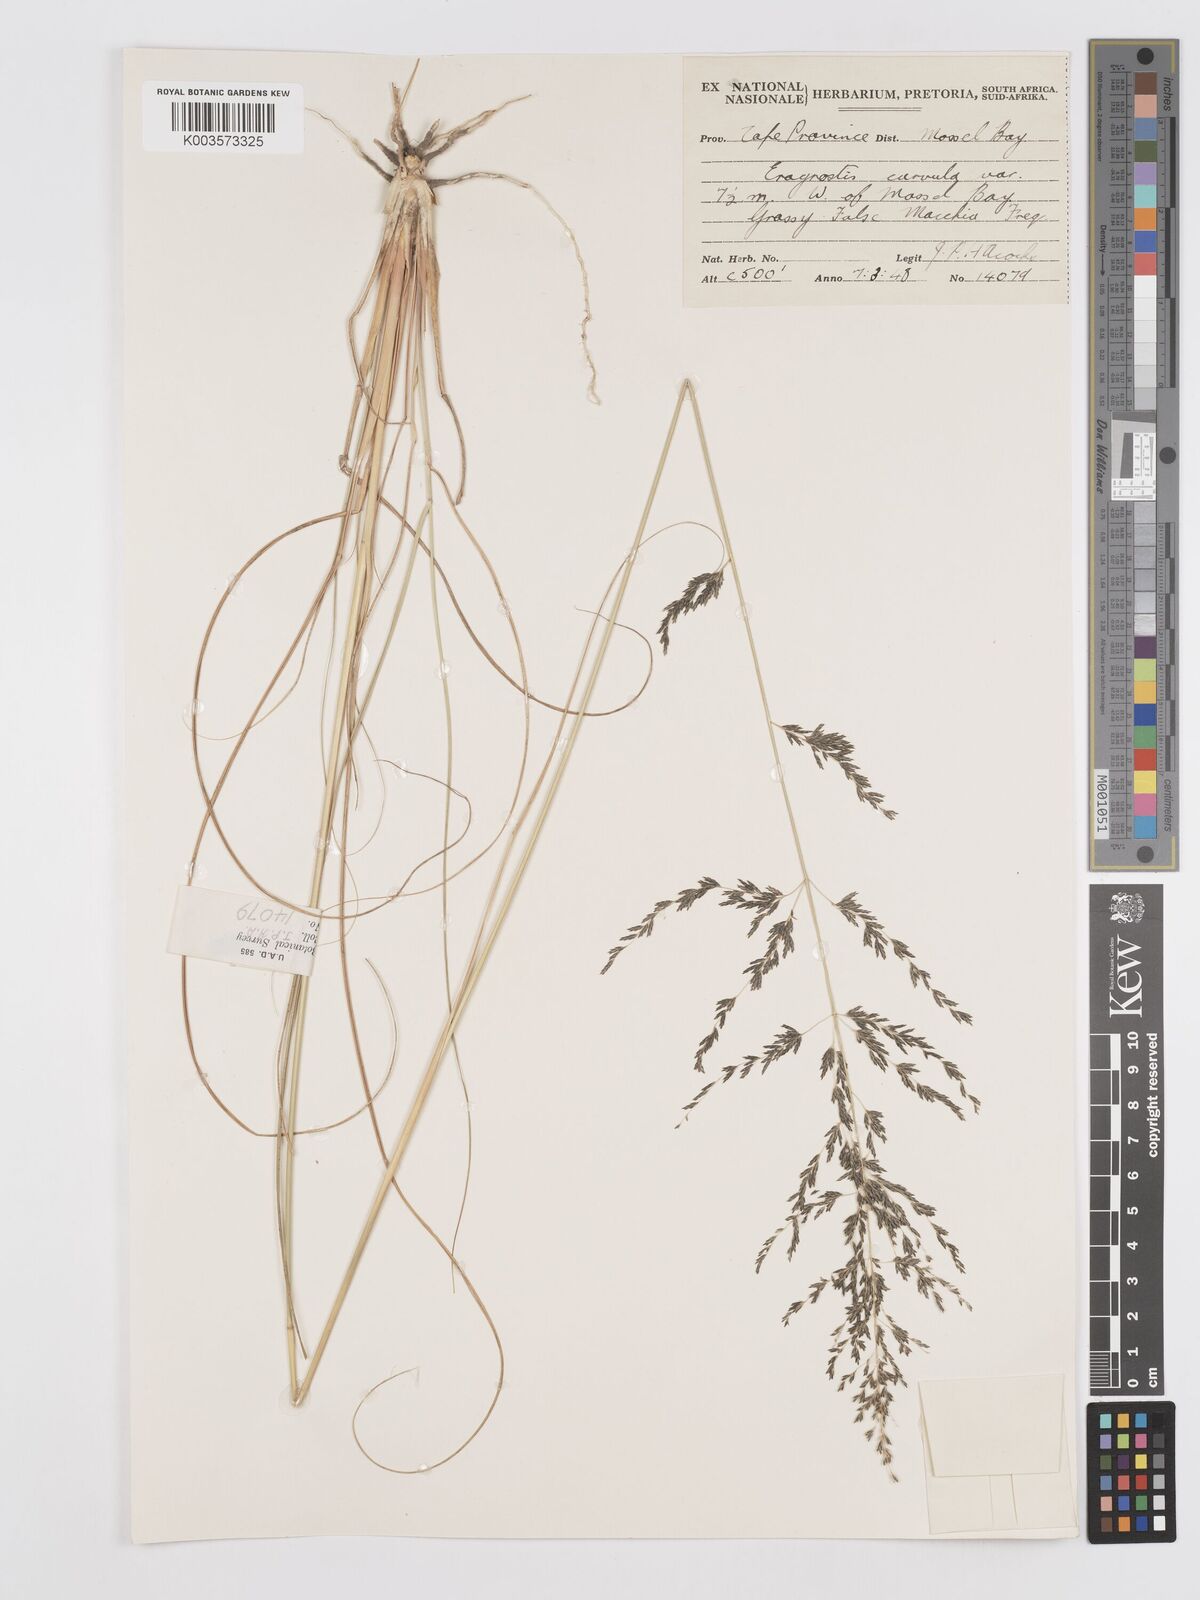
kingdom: Plantae
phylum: Tracheophyta
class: Liliopsida
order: Poales
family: Poaceae
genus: Eragrostis
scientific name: Eragrostis curvula
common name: African love-grass
